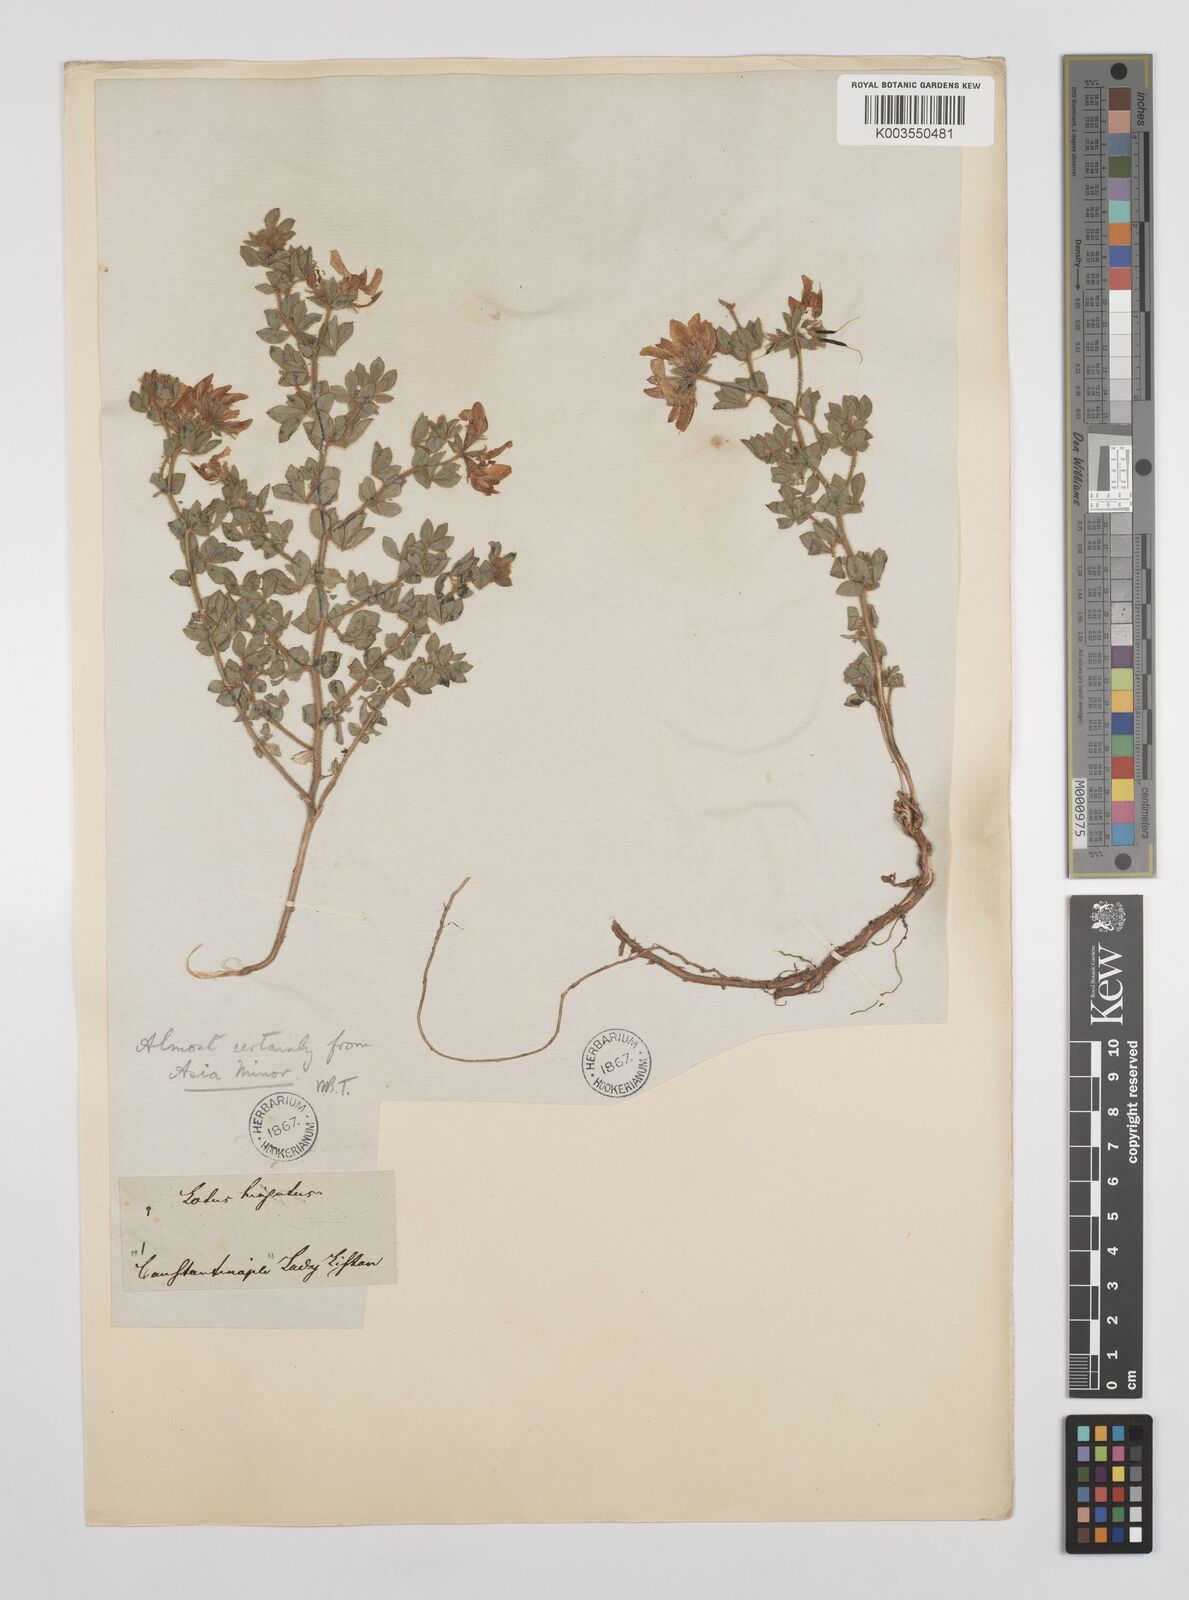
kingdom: Plantae
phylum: Tracheophyta
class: Magnoliopsida
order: Fabales
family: Fabaceae
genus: Lotus
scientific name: Lotus aegaeus
